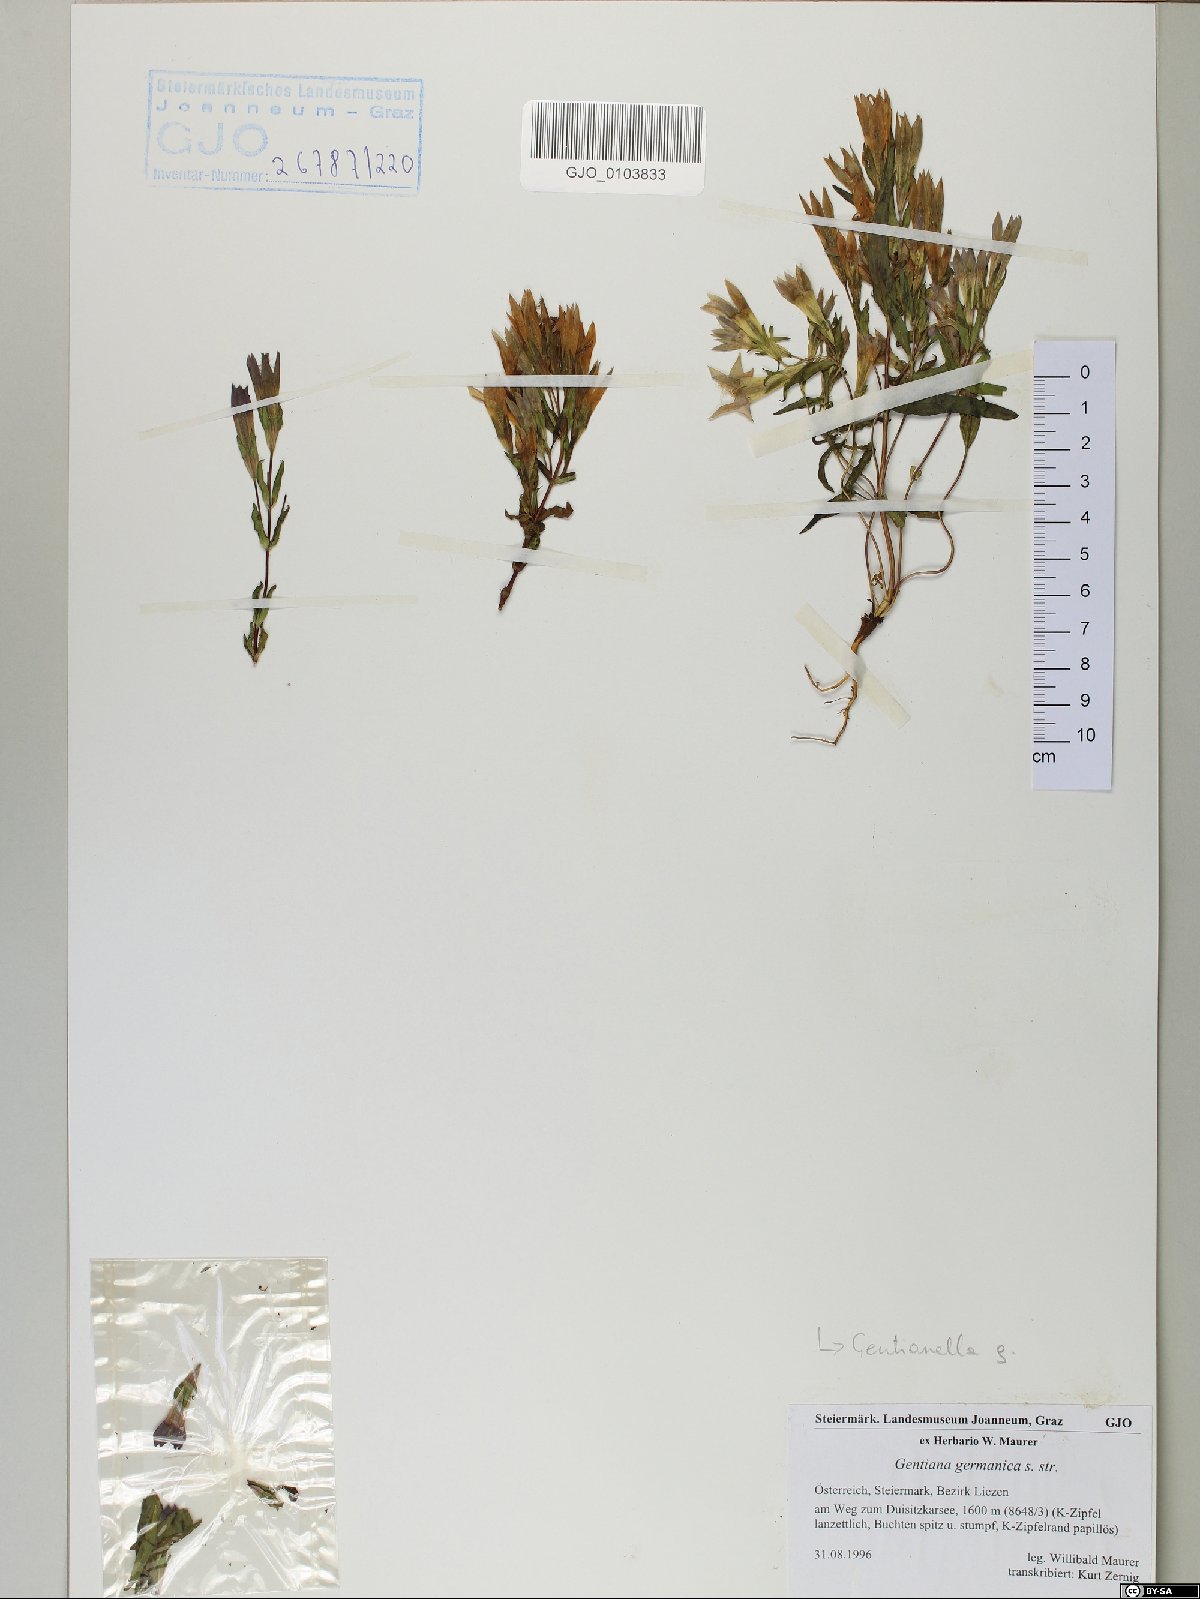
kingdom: Plantae
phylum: Tracheophyta
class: Magnoliopsida
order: Gentianales
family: Gentianaceae
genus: Gentianella
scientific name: Gentianella germanica
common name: Chiltern-gentian
